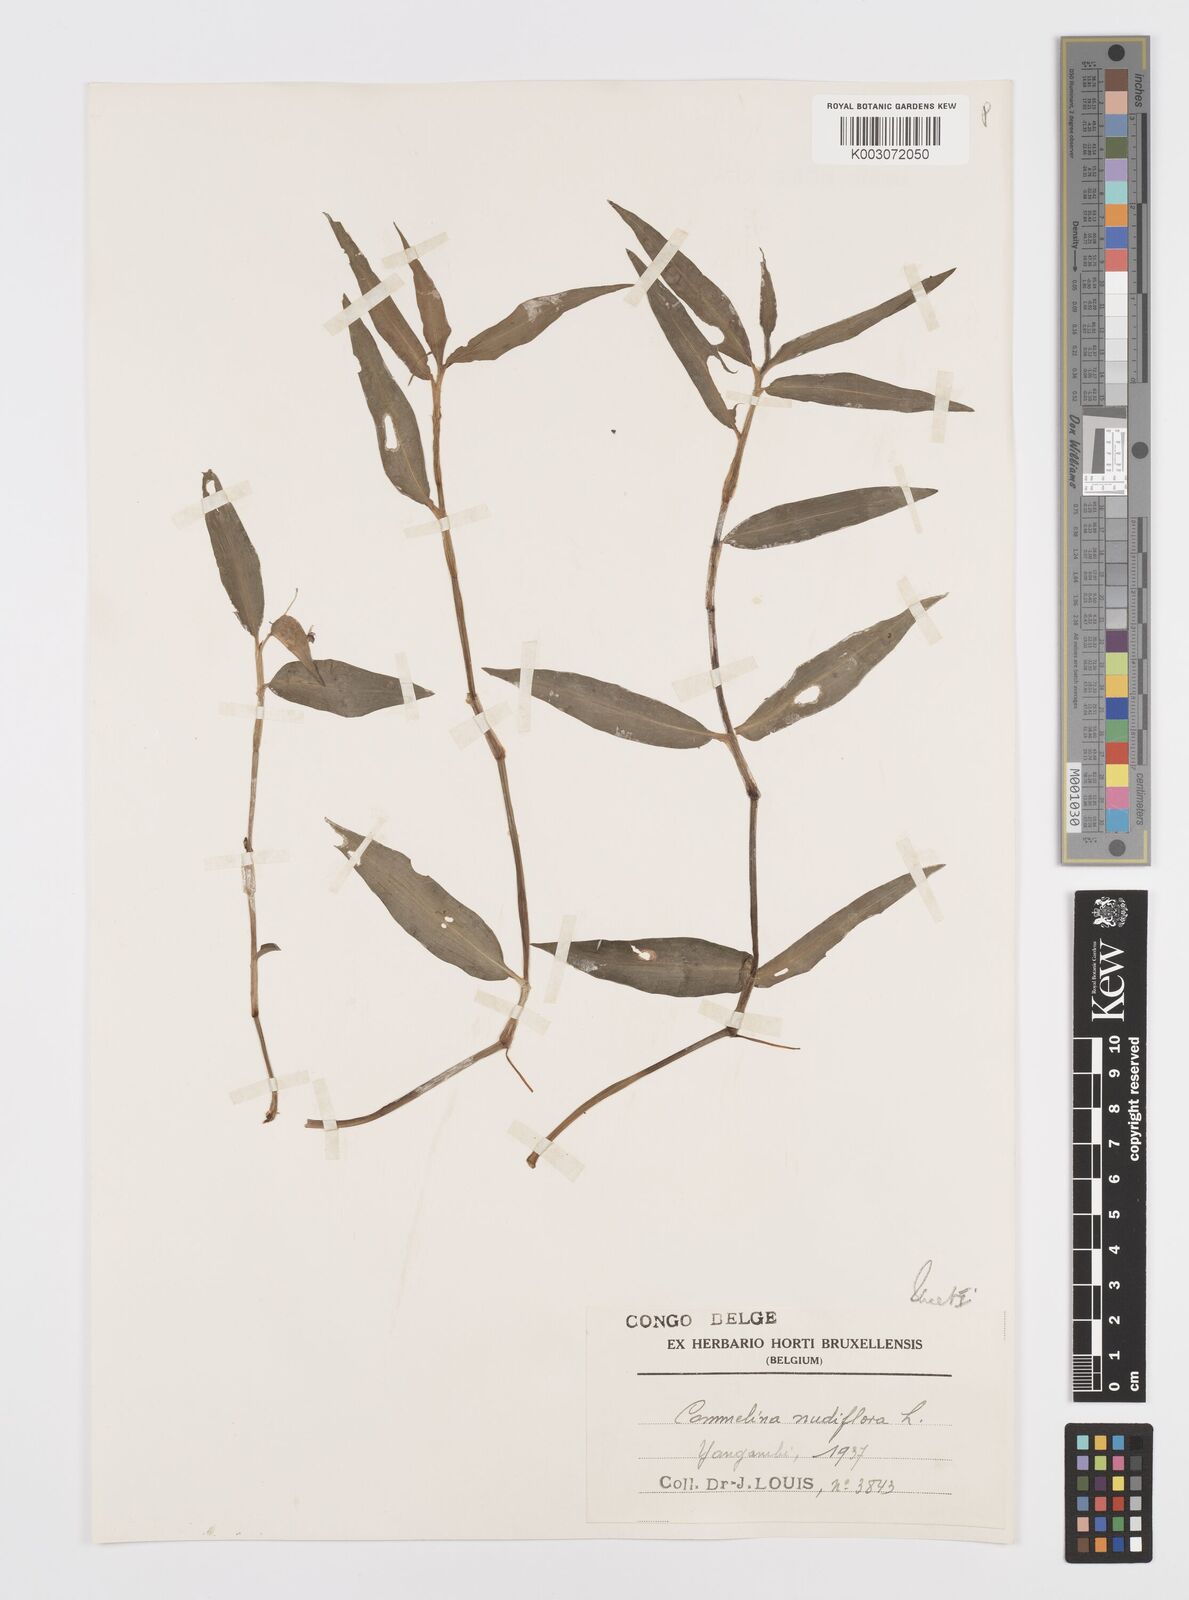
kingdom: Plantae
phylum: Tracheophyta
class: Liliopsida
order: Commelinales
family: Commelinaceae
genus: Commelina
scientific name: Commelina diffusa
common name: Climbing dayflower
